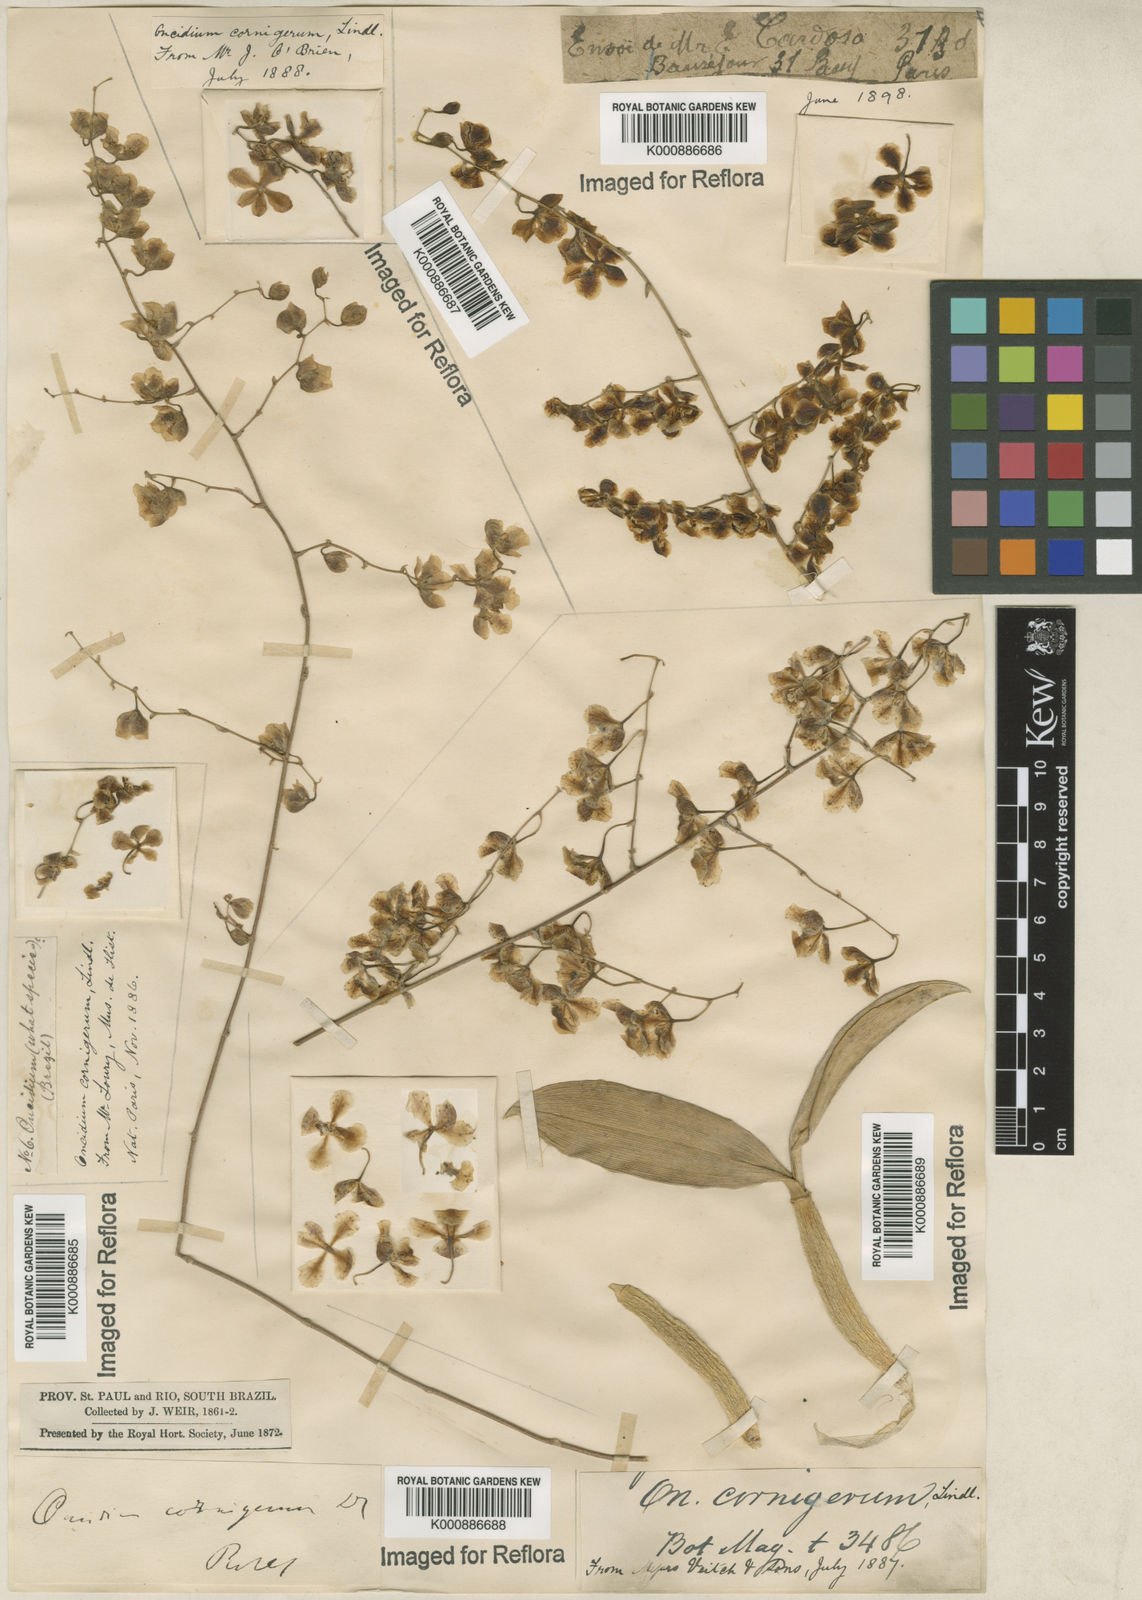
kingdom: Plantae
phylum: Tracheophyta
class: Liliopsida
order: Asparagales
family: Orchidaceae
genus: Gomesa
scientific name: Gomesa cornigera
